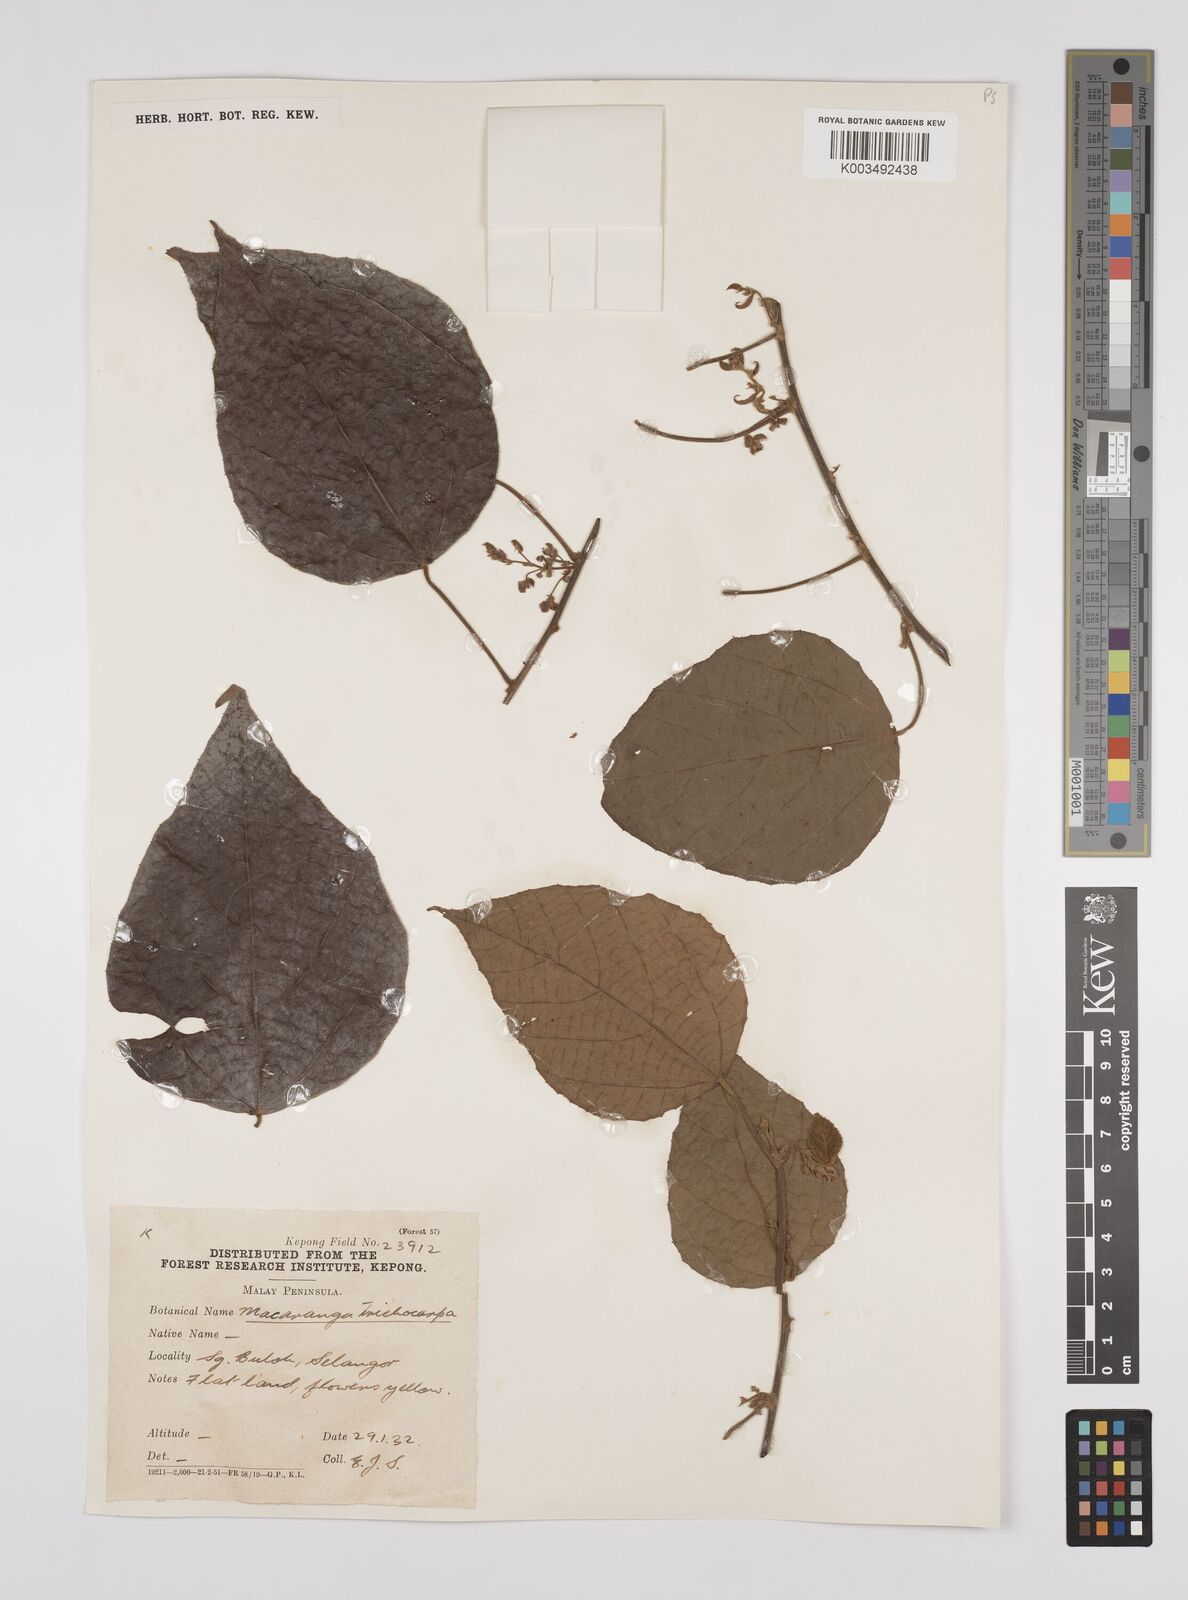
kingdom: Plantae
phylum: Tracheophyta
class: Magnoliopsida
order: Malpighiales
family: Euphorbiaceae
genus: Macaranga
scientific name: Macaranga trichocarpa
